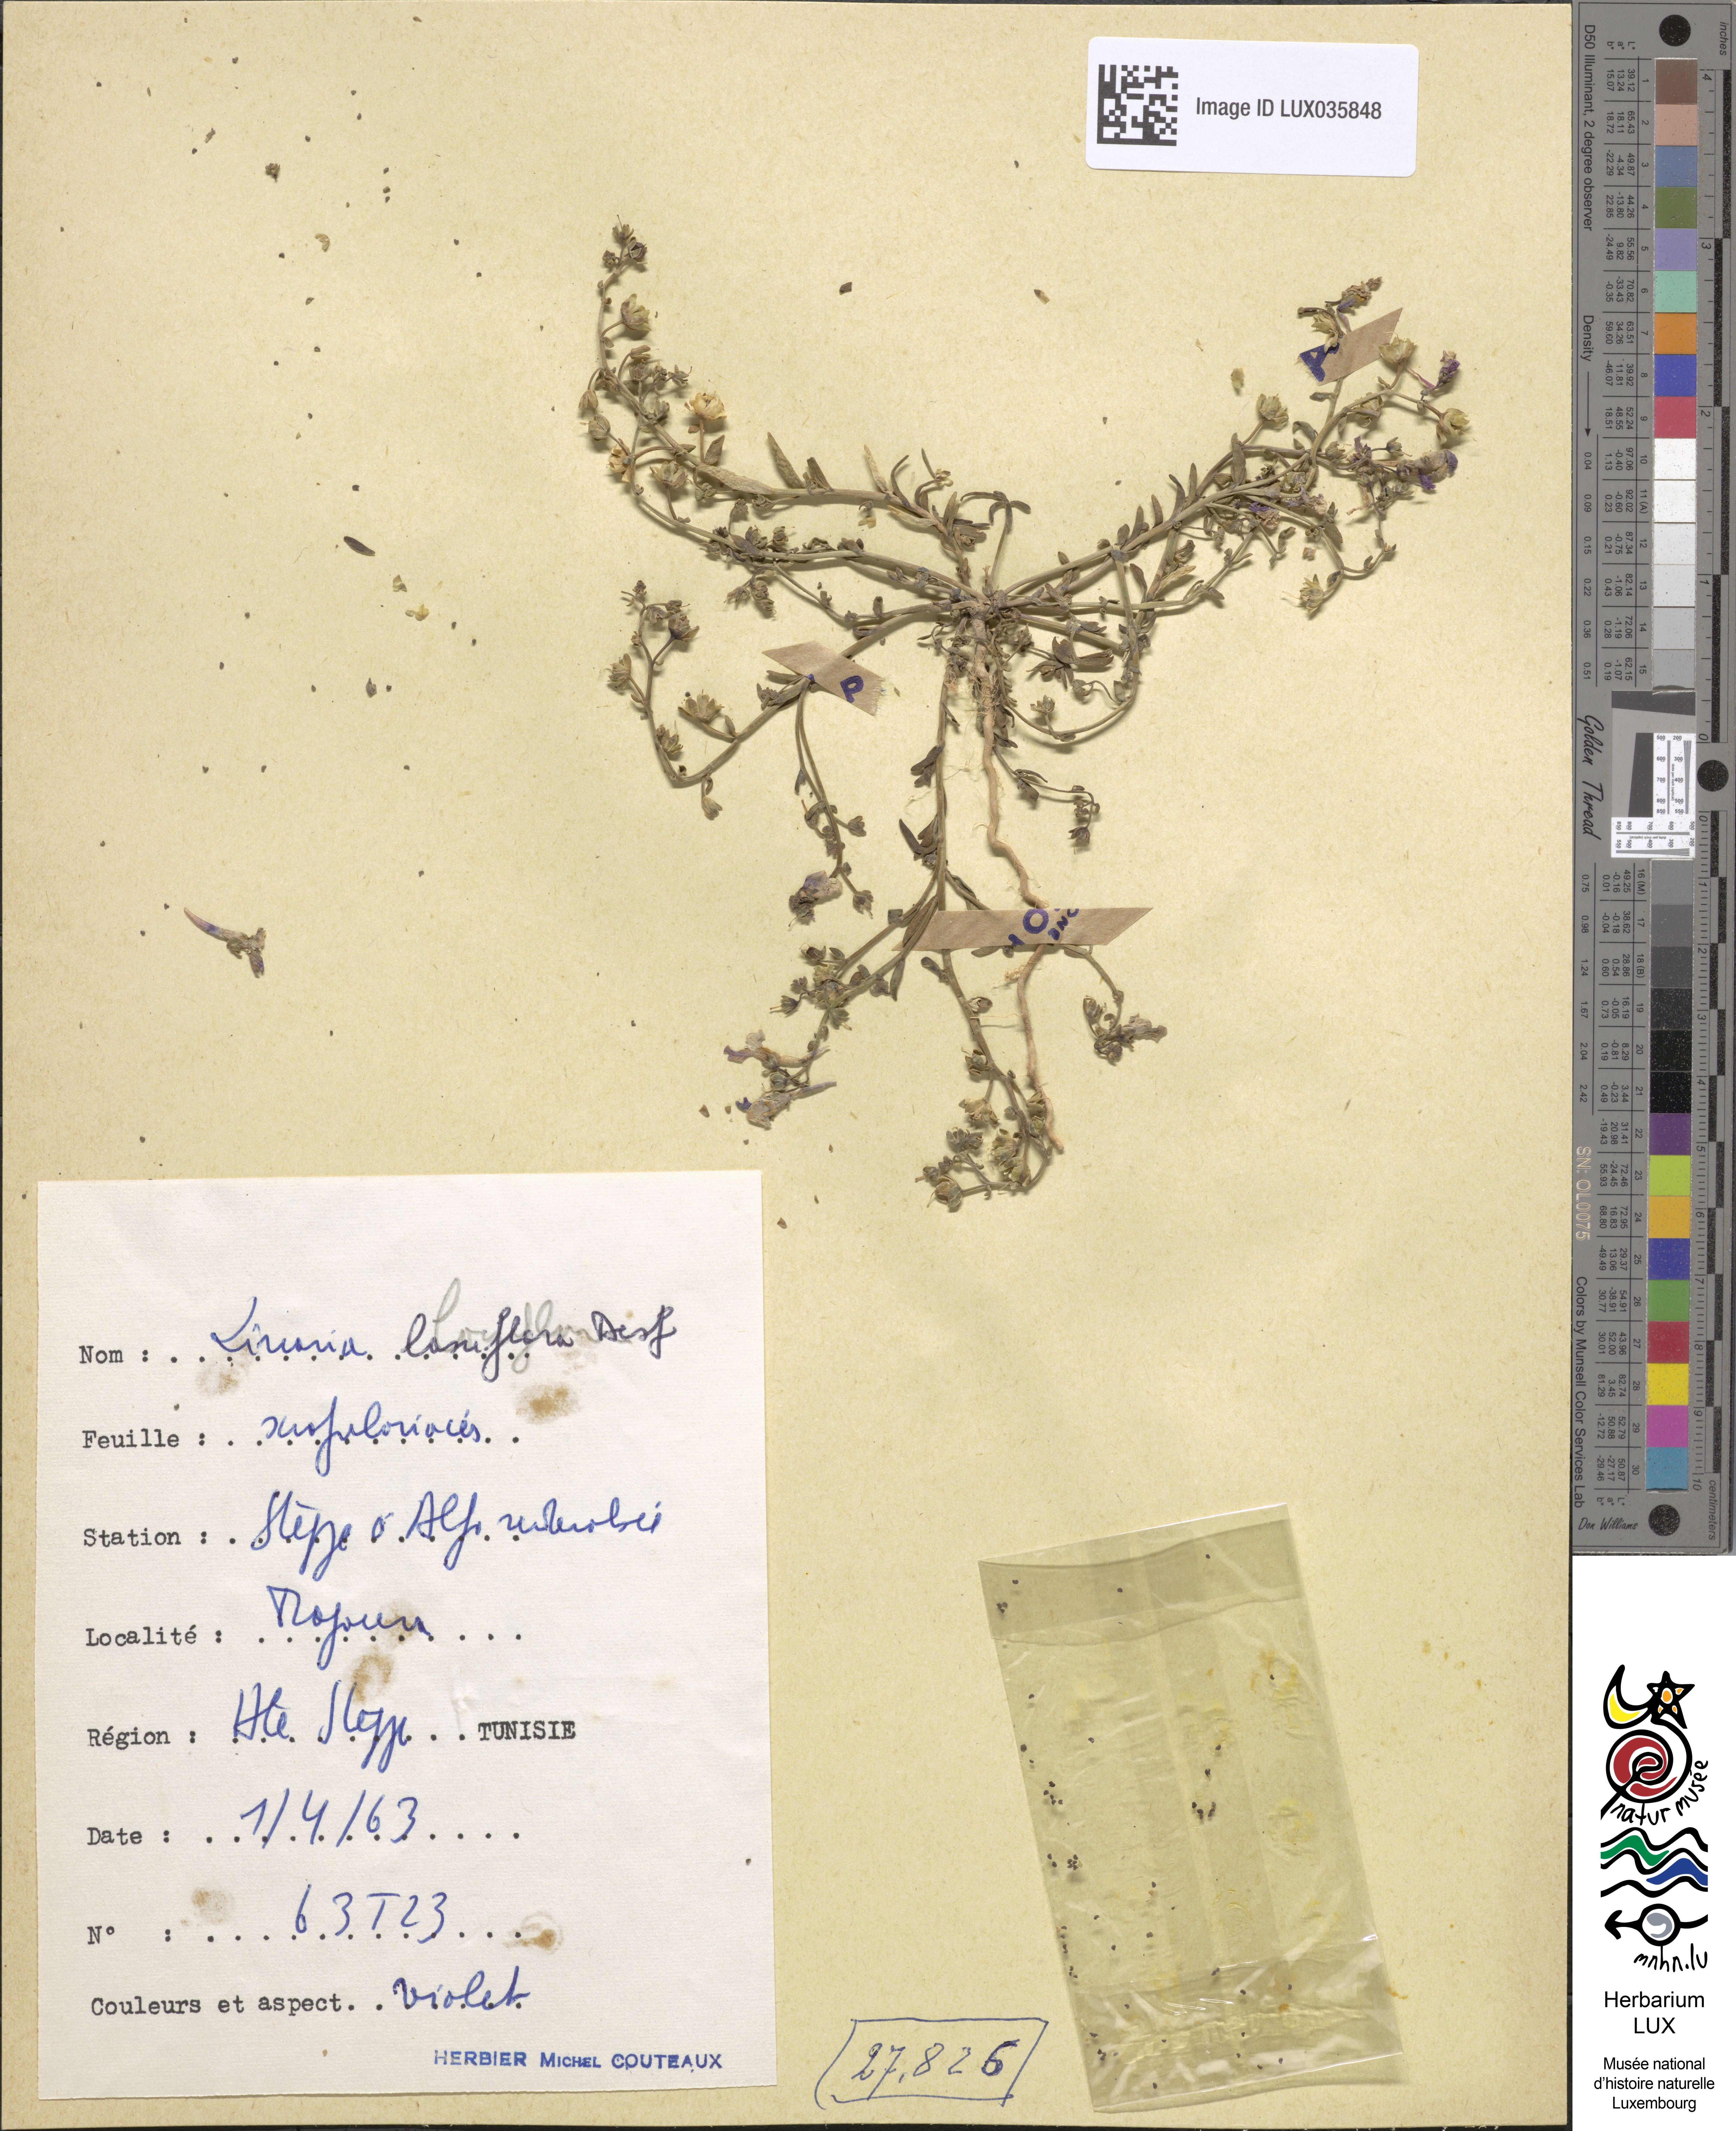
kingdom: Plantae
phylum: Tracheophyta
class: Magnoliopsida
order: Lamiales
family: Plantaginaceae
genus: Linaria
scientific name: Linaria laxiflora
